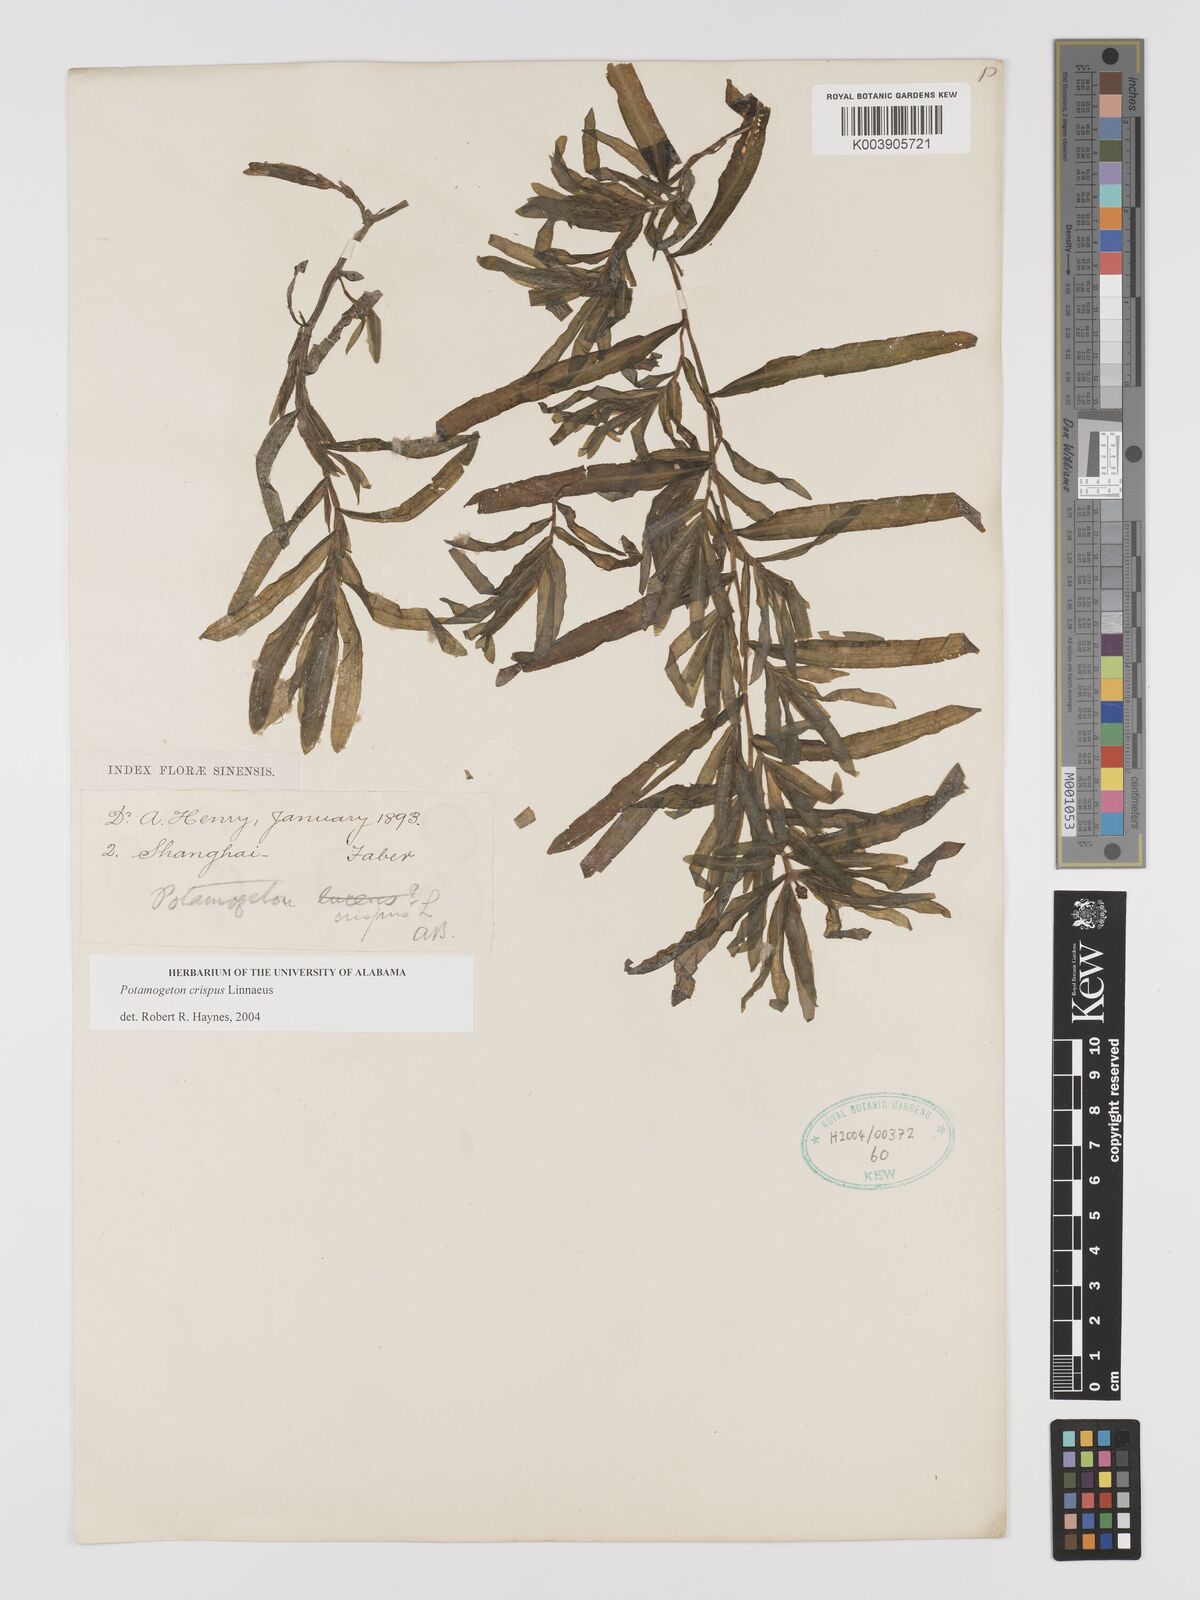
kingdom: Plantae
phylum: Tracheophyta
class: Liliopsida
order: Alismatales
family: Potamogetonaceae
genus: Potamogeton
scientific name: Potamogeton crispus
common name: Curled pondweed
